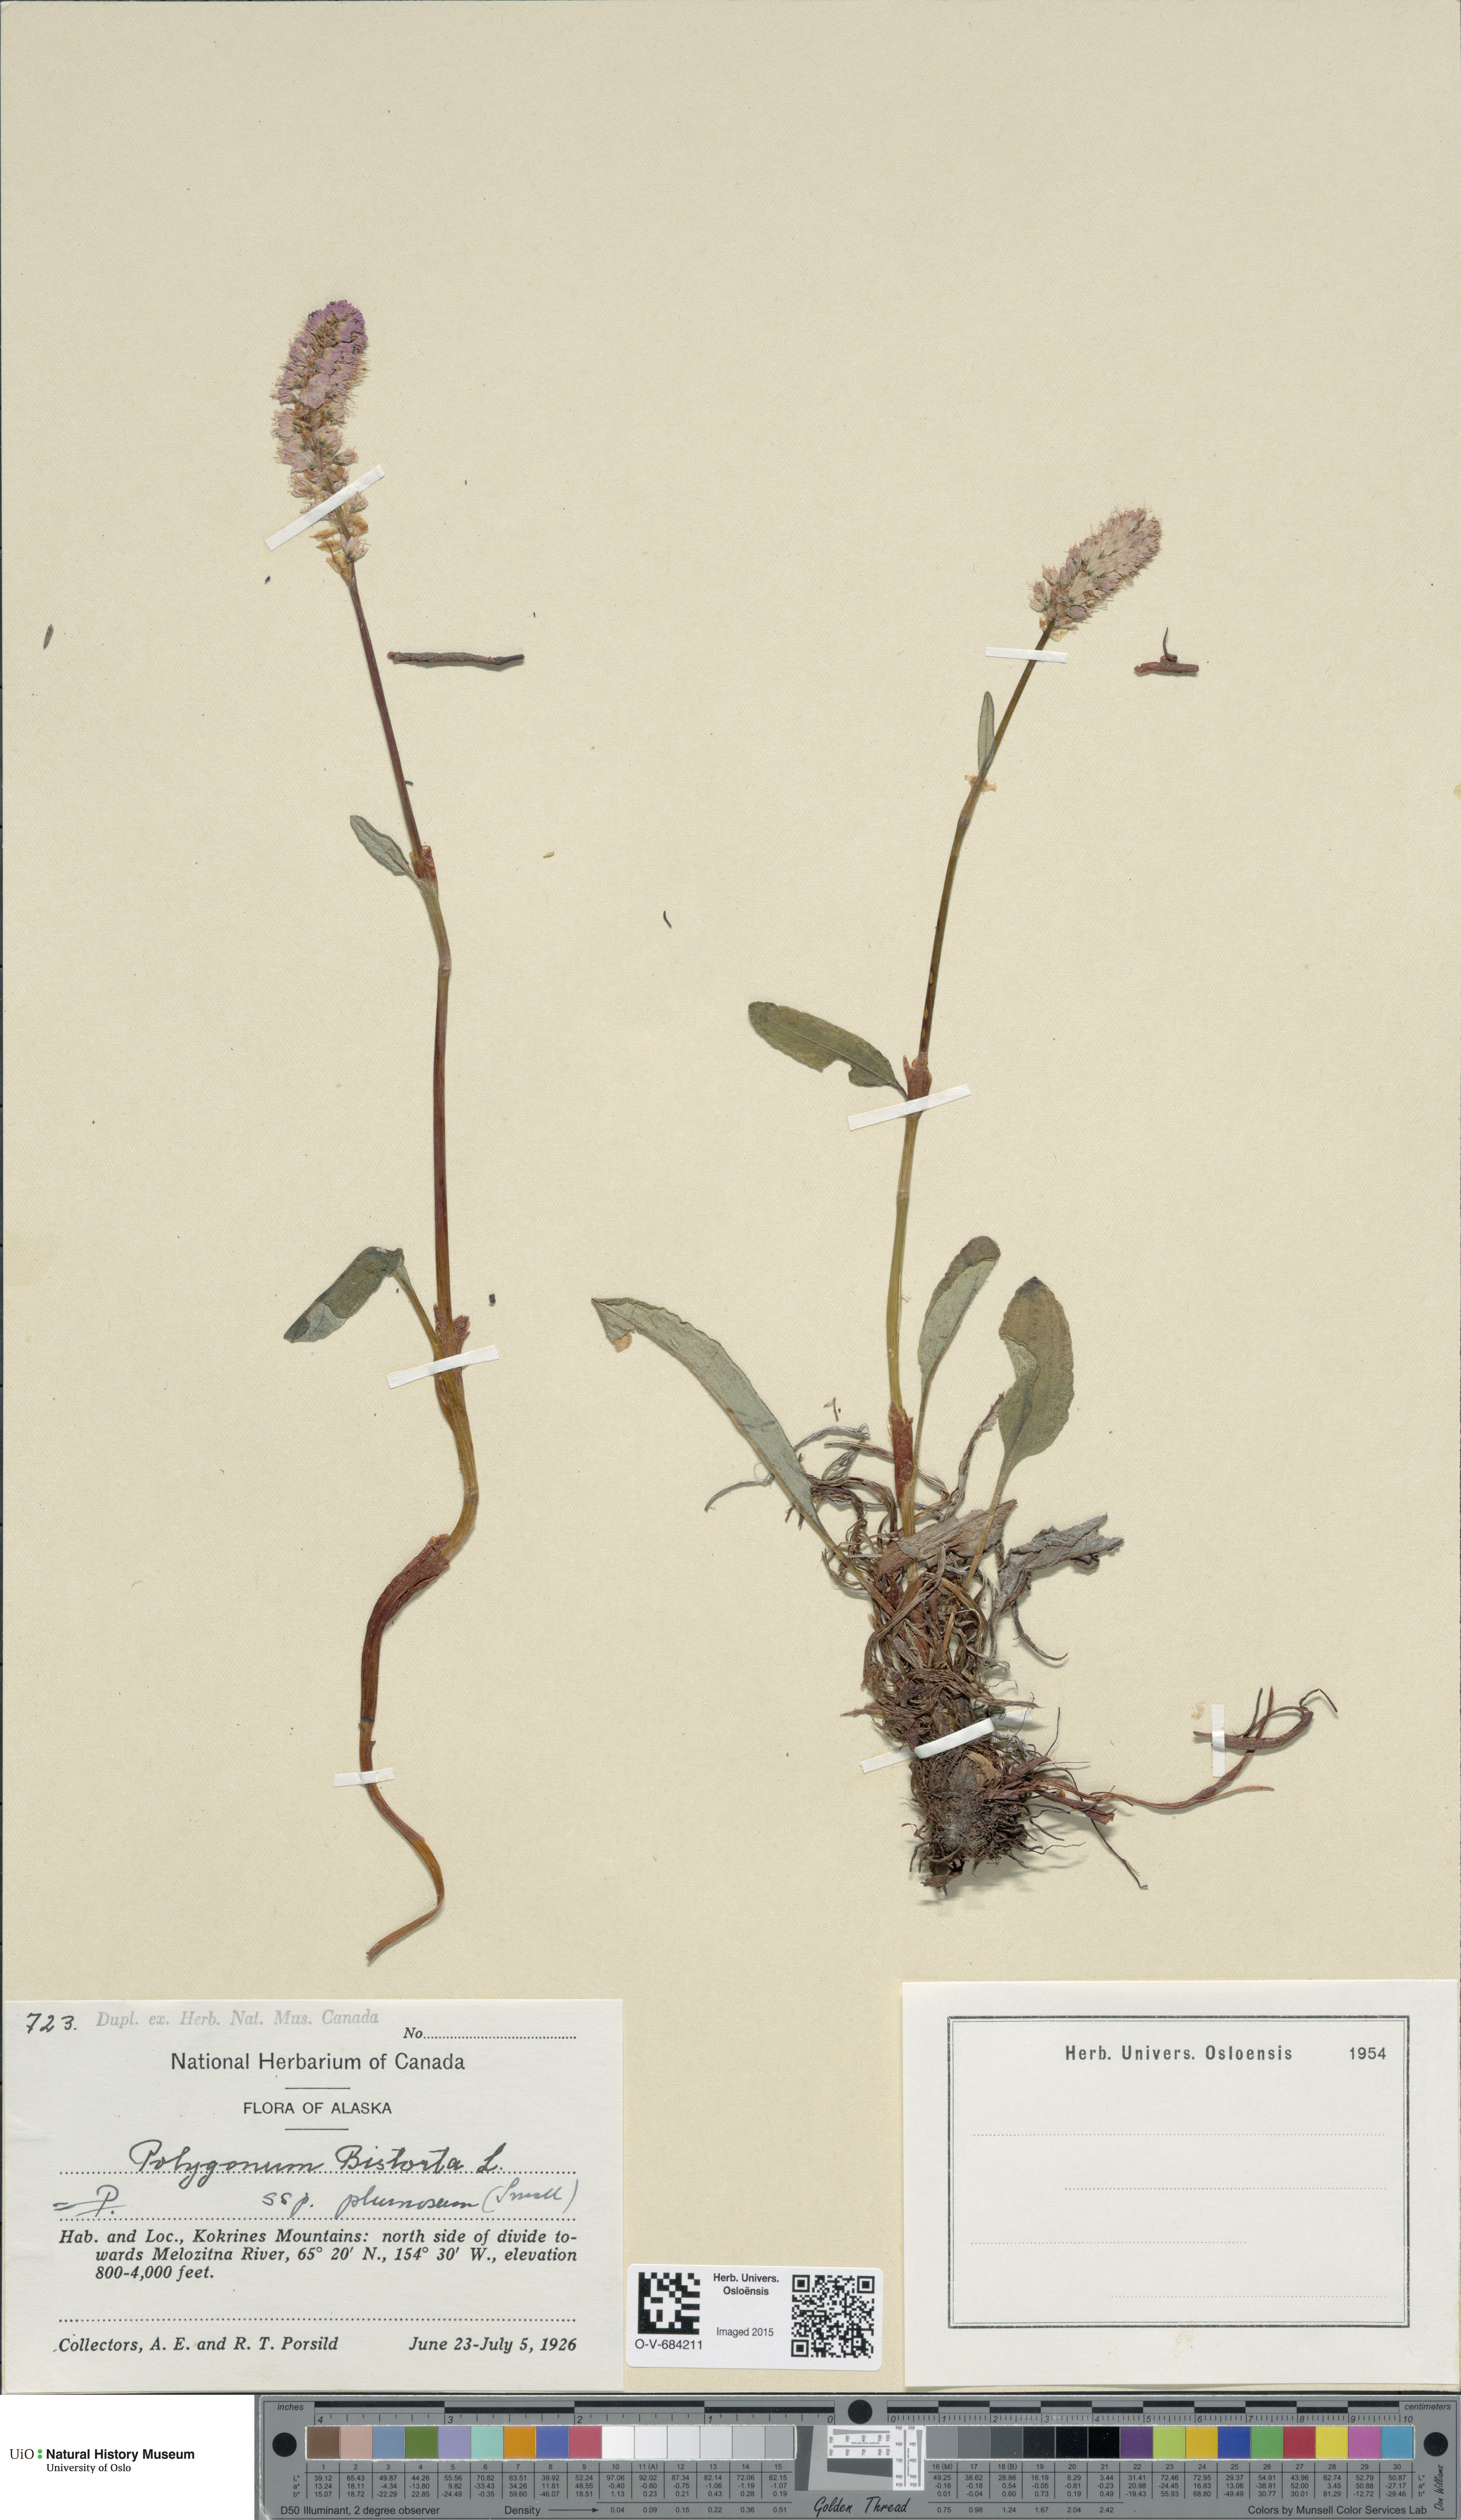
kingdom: Plantae
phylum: Tracheophyta
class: Magnoliopsida
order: Caryophyllales
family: Polygonaceae
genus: Bistorta
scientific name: Bistorta plumosa
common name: Meadow bistort
